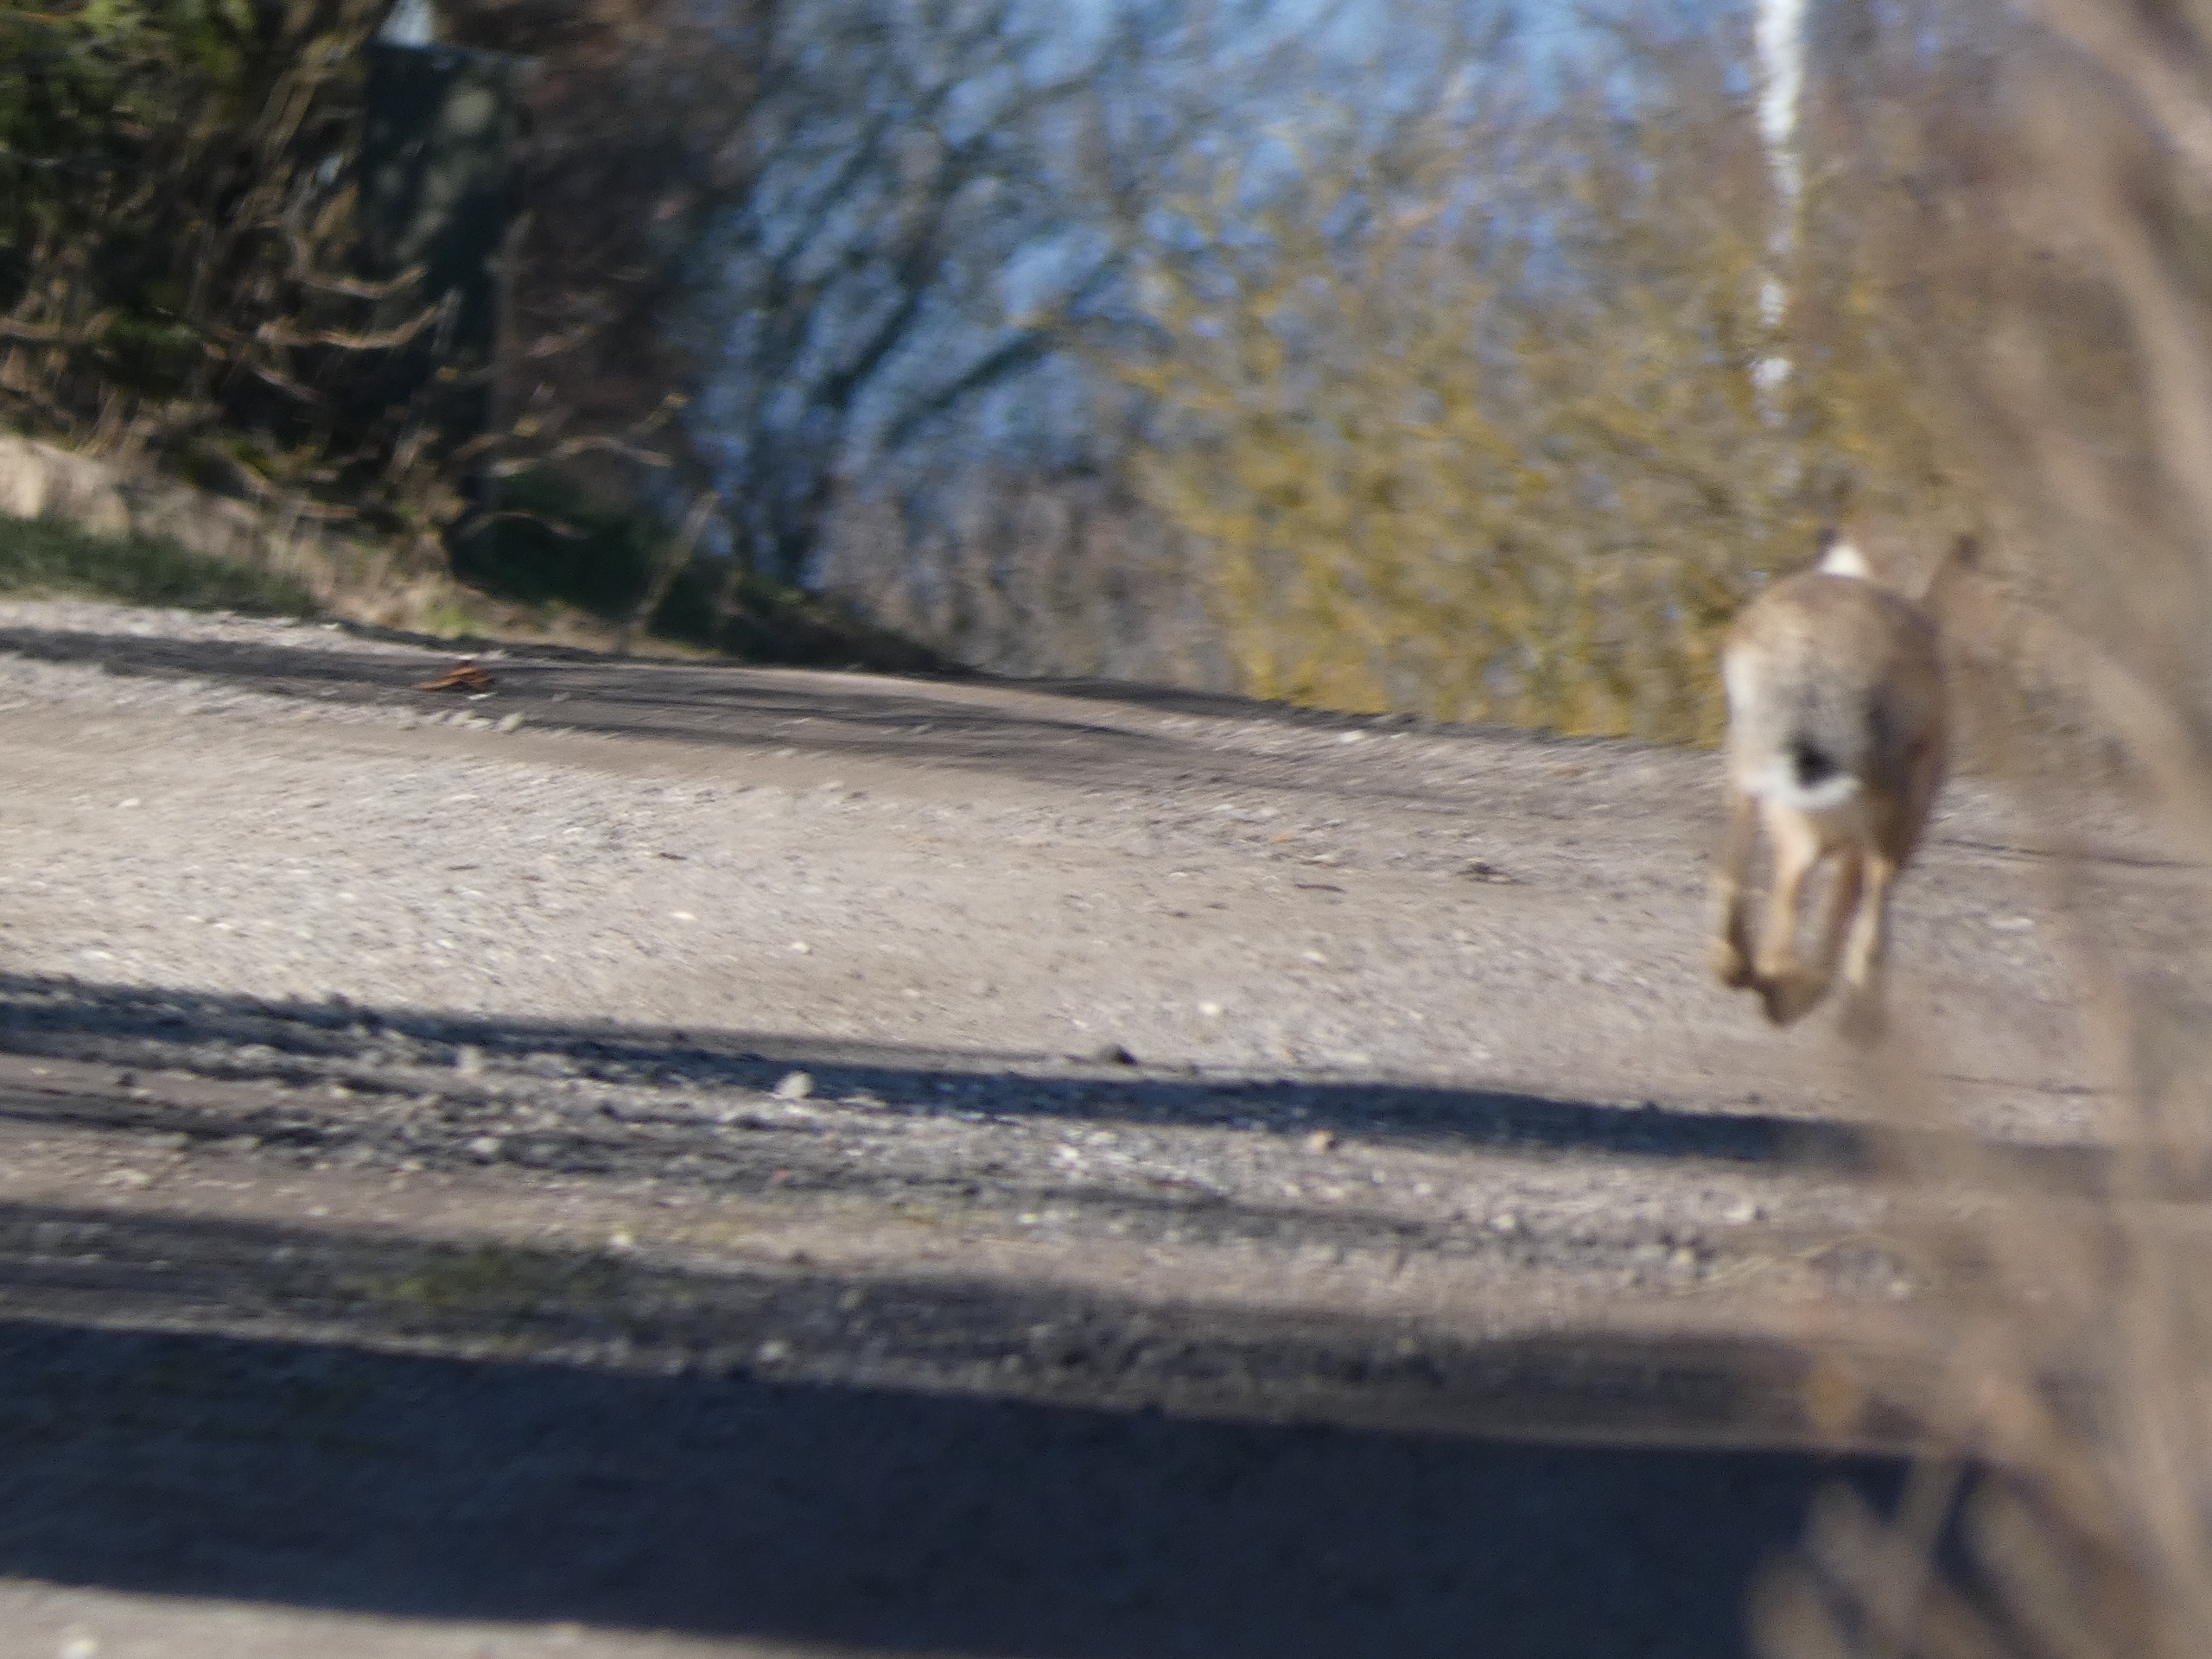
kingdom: Animalia
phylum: Chordata
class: Mammalia
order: Lagomorpha
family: Leporidae
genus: Lepus
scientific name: Lepus europaeus
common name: Hare
